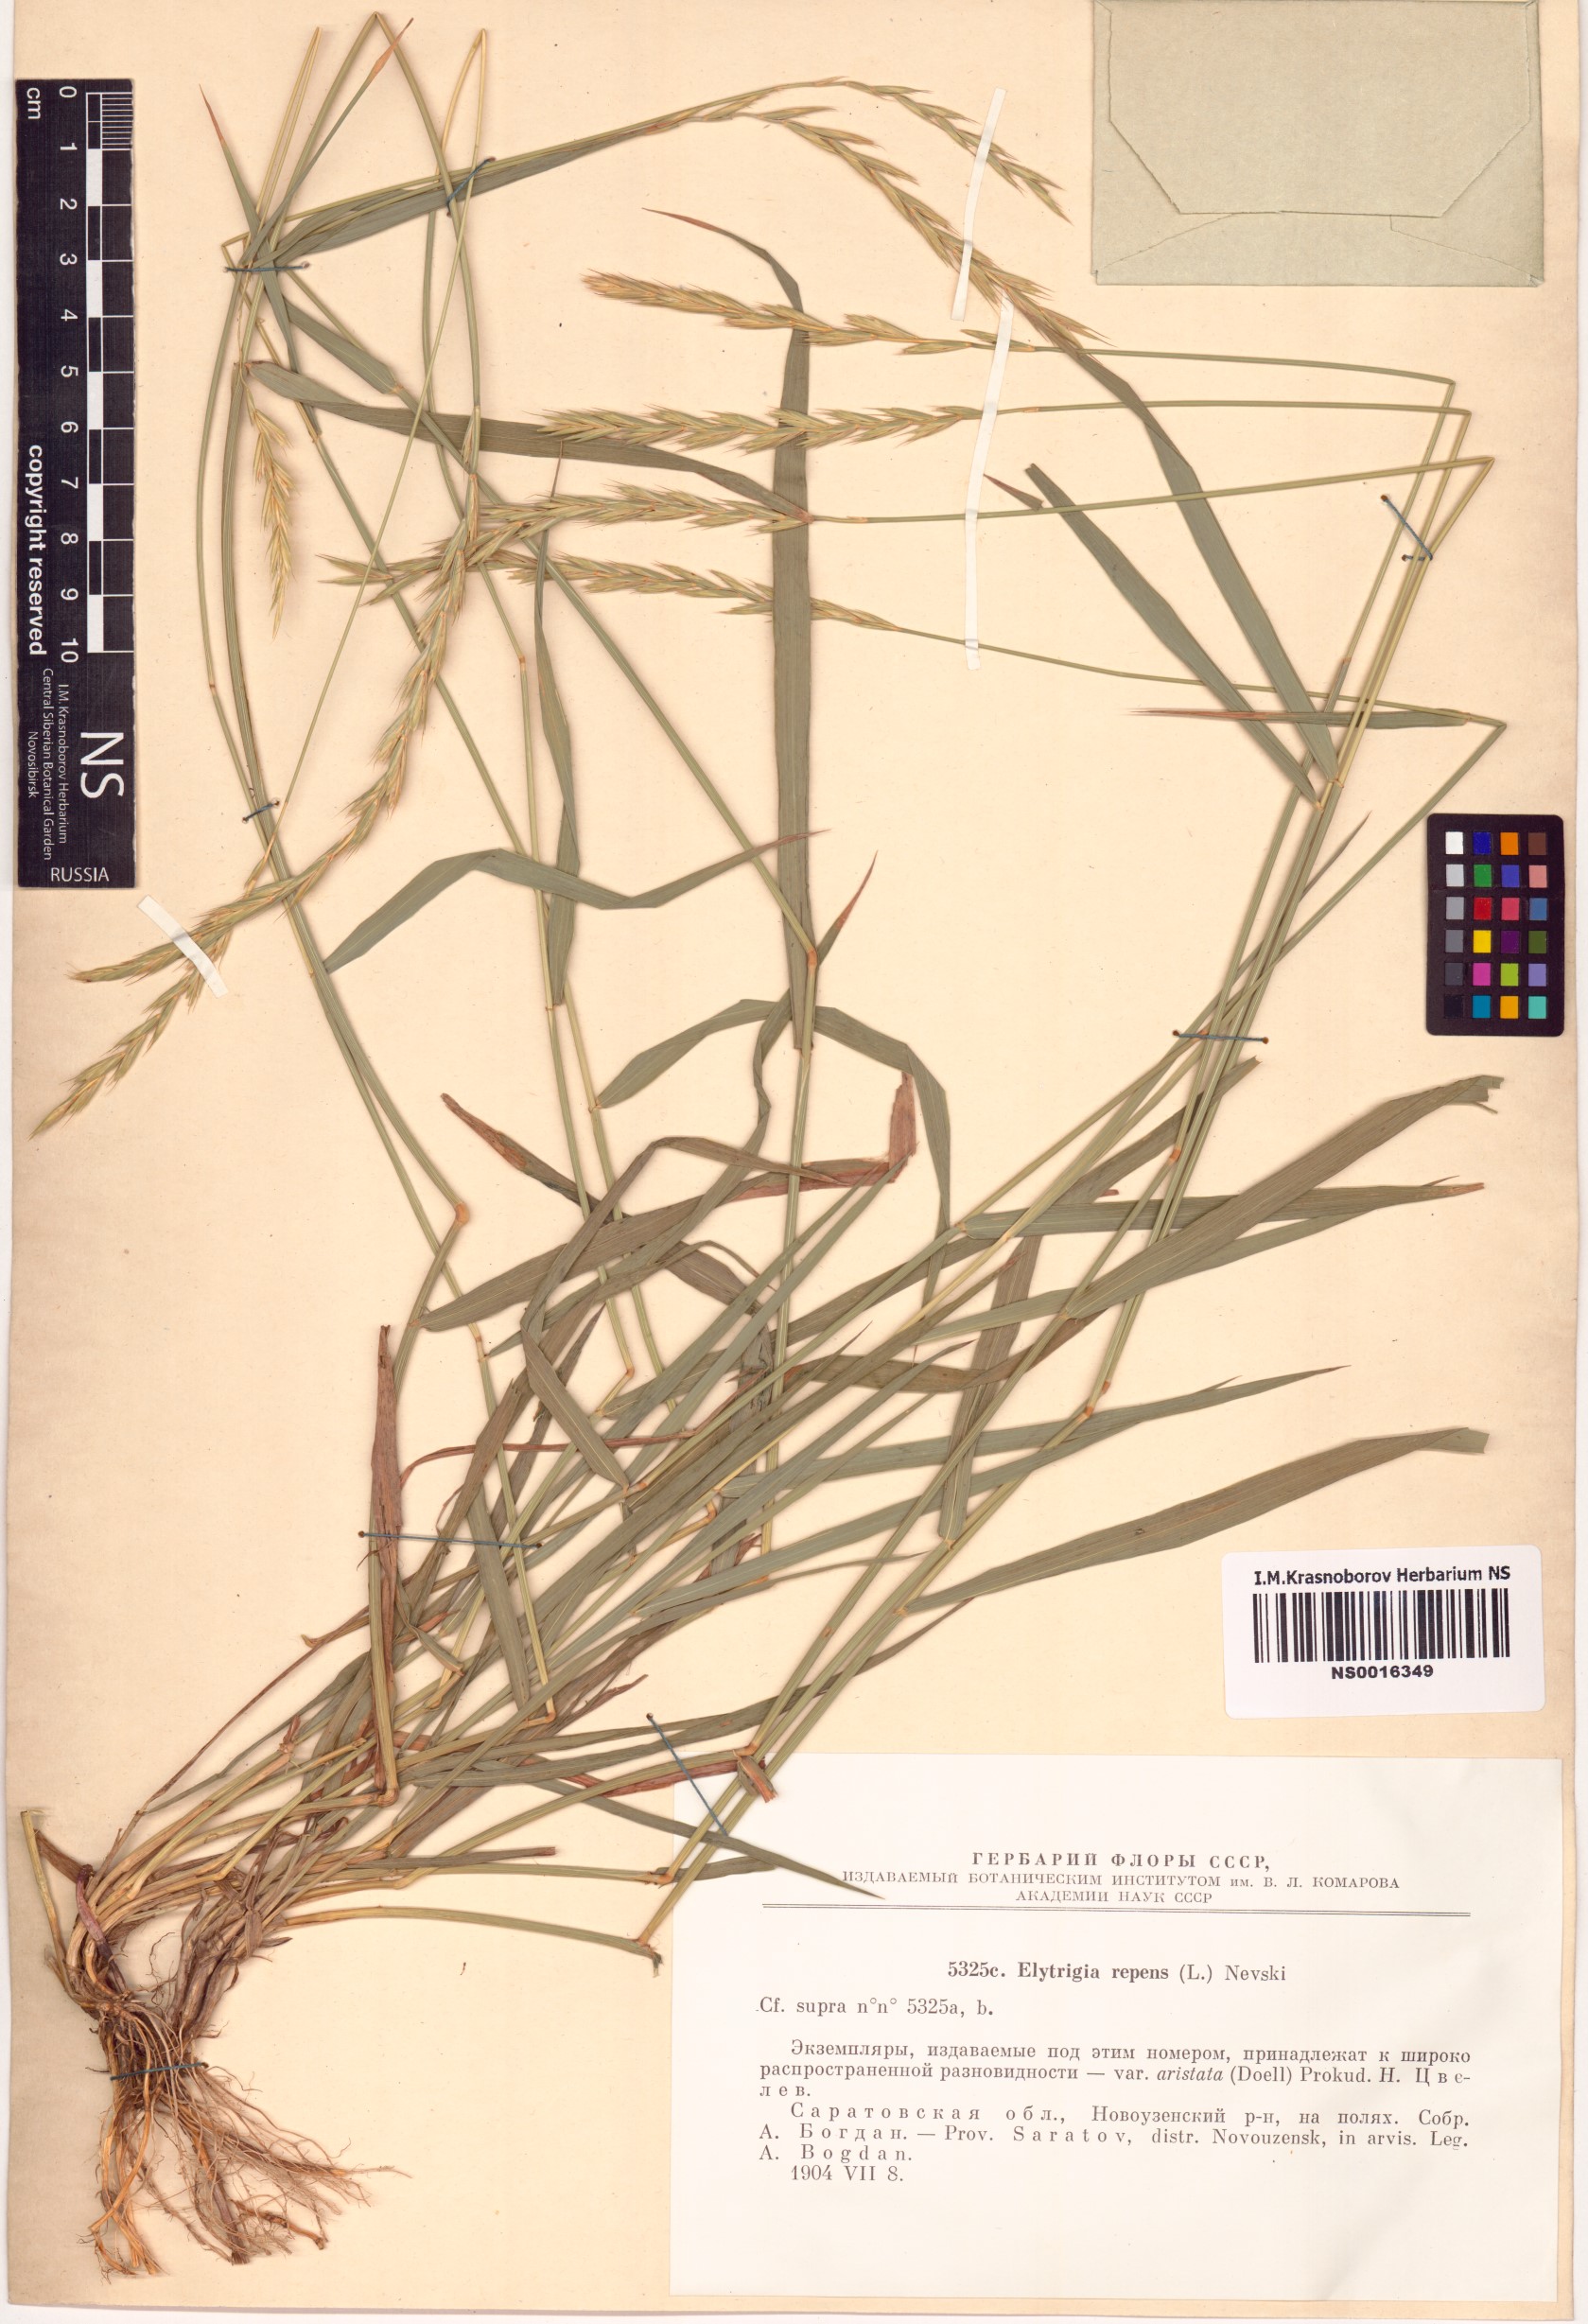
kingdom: Plantae
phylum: Tracheophyta
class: Liliopsida
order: Poales
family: Poaceae
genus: Elymus
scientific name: Elymus repens
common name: Quackgrass
